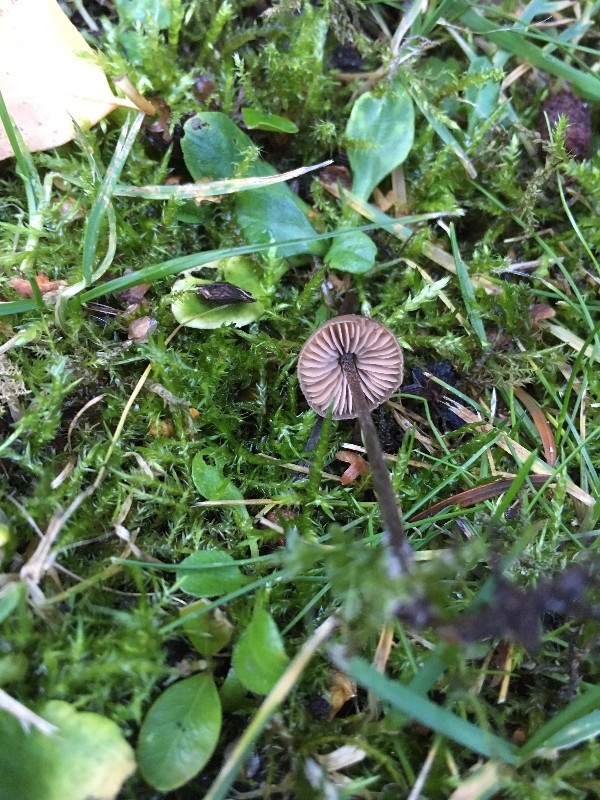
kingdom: Fungi
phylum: Basidiomycota
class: Agaricomycetes
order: Agaricales
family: Entolomataceae
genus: Entoloma
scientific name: Entoloma hebes
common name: krat-rødblad
